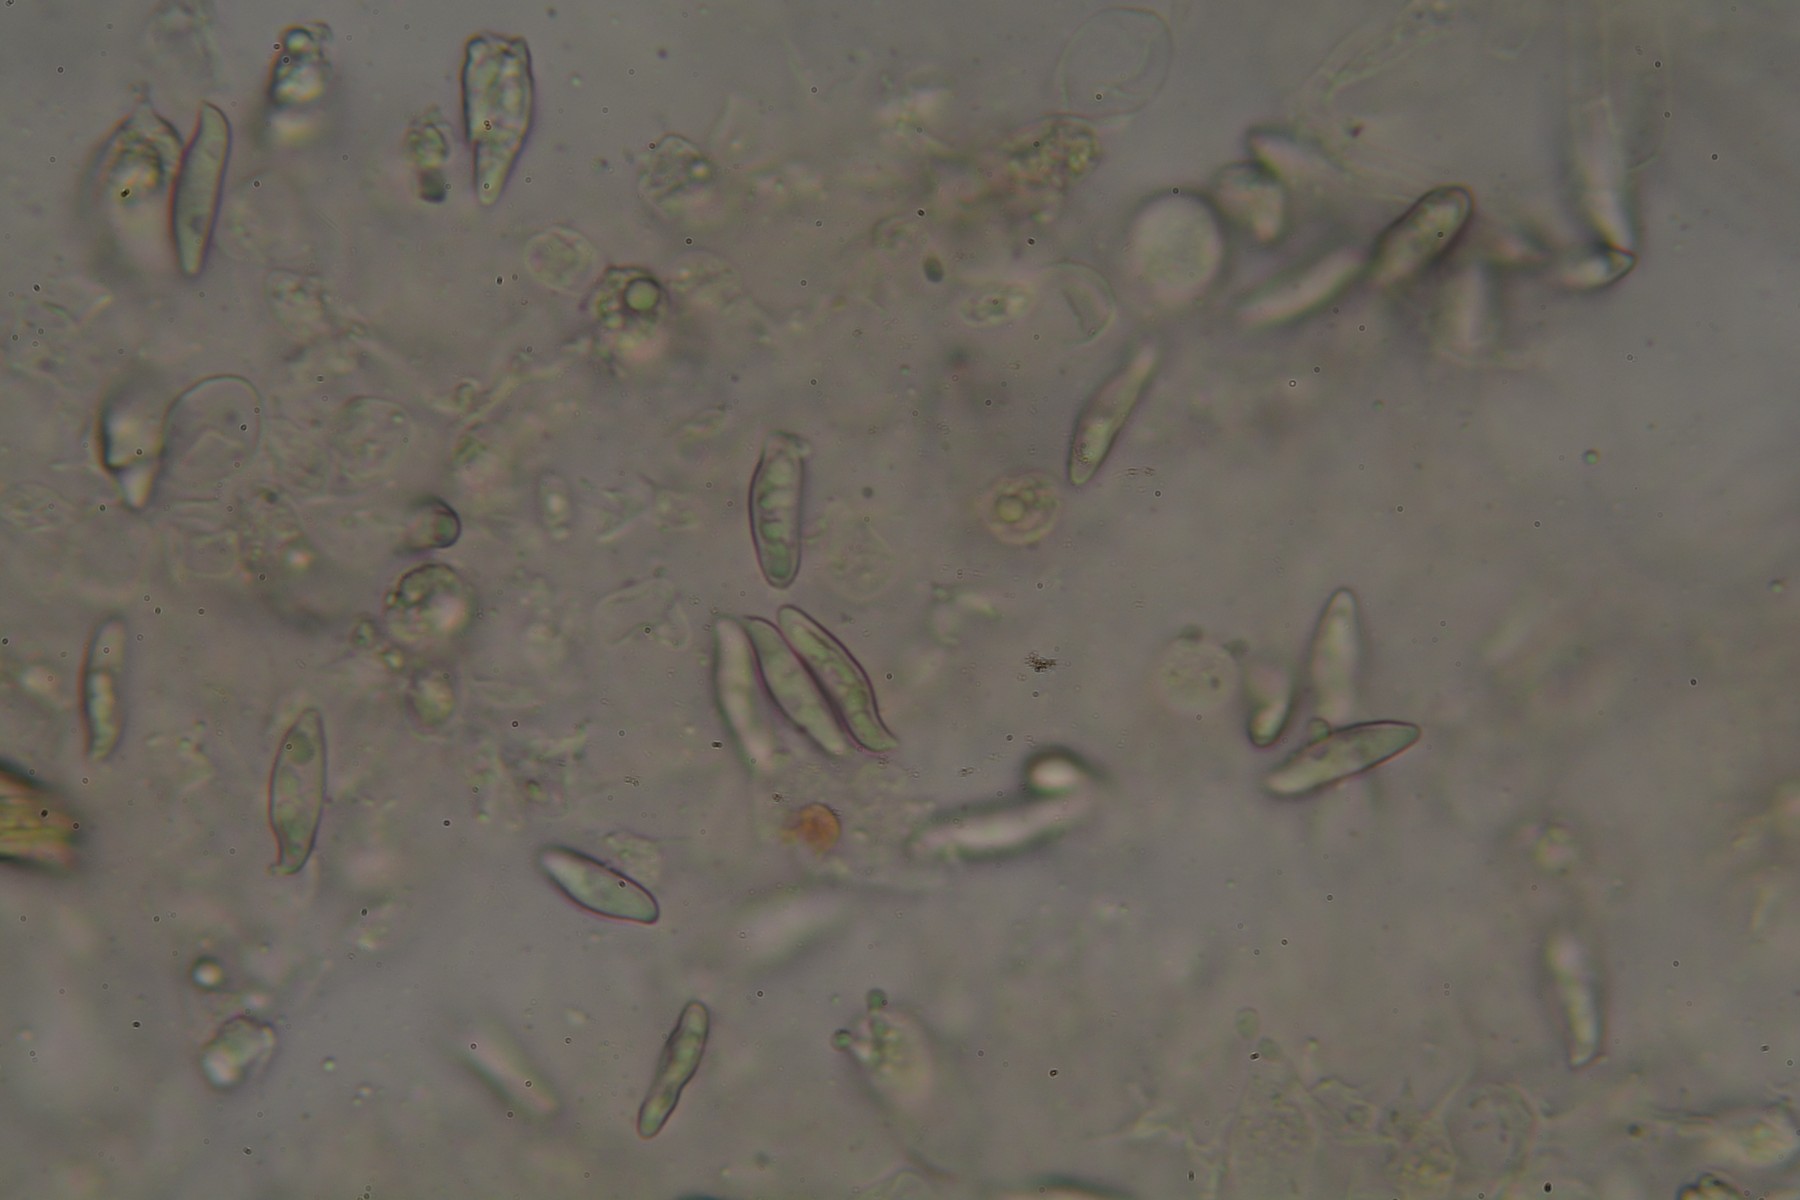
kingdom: Fungi
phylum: Basidiomycota
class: Agaricomycetes
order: Agaricales
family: Agaricaceae
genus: Lepiota
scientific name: Lepiota magnispora
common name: gulfnugget parasolhat
